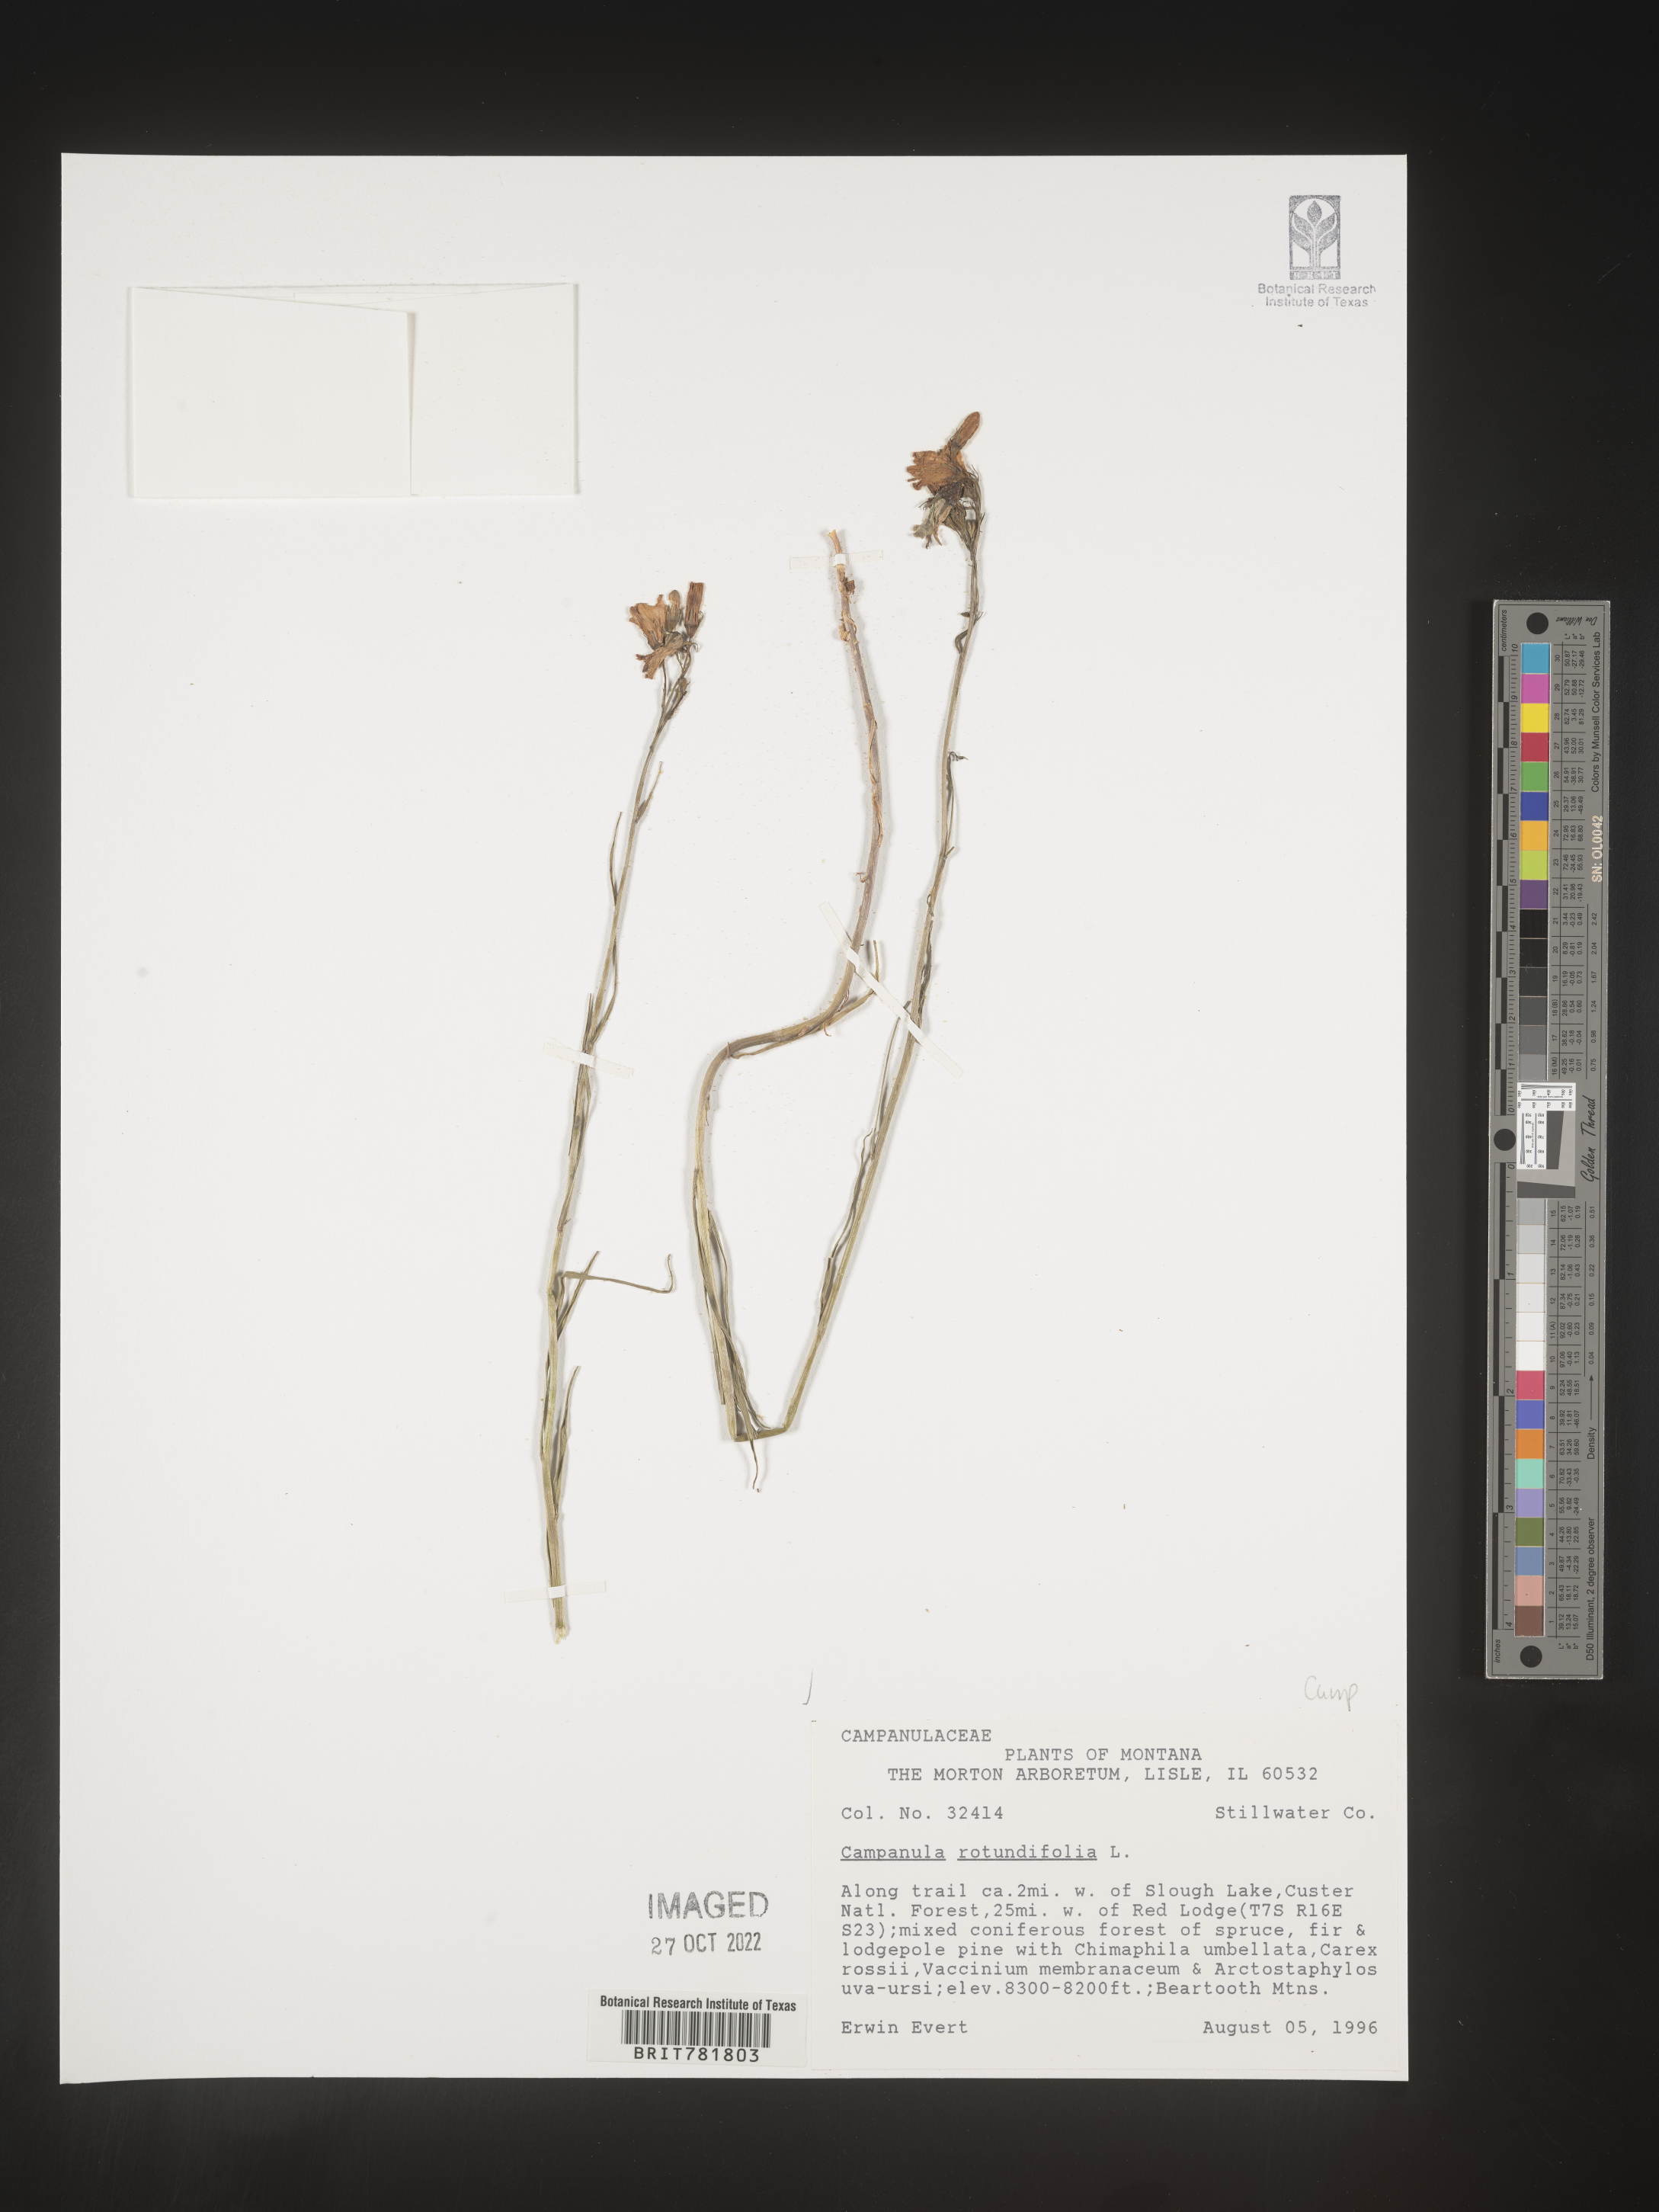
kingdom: Plantae
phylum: Tracheophyta
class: Magnoliopsida
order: Asterales
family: Campanulaceae
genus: Campanula
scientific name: Campanula rotundifolia
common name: Harebell
